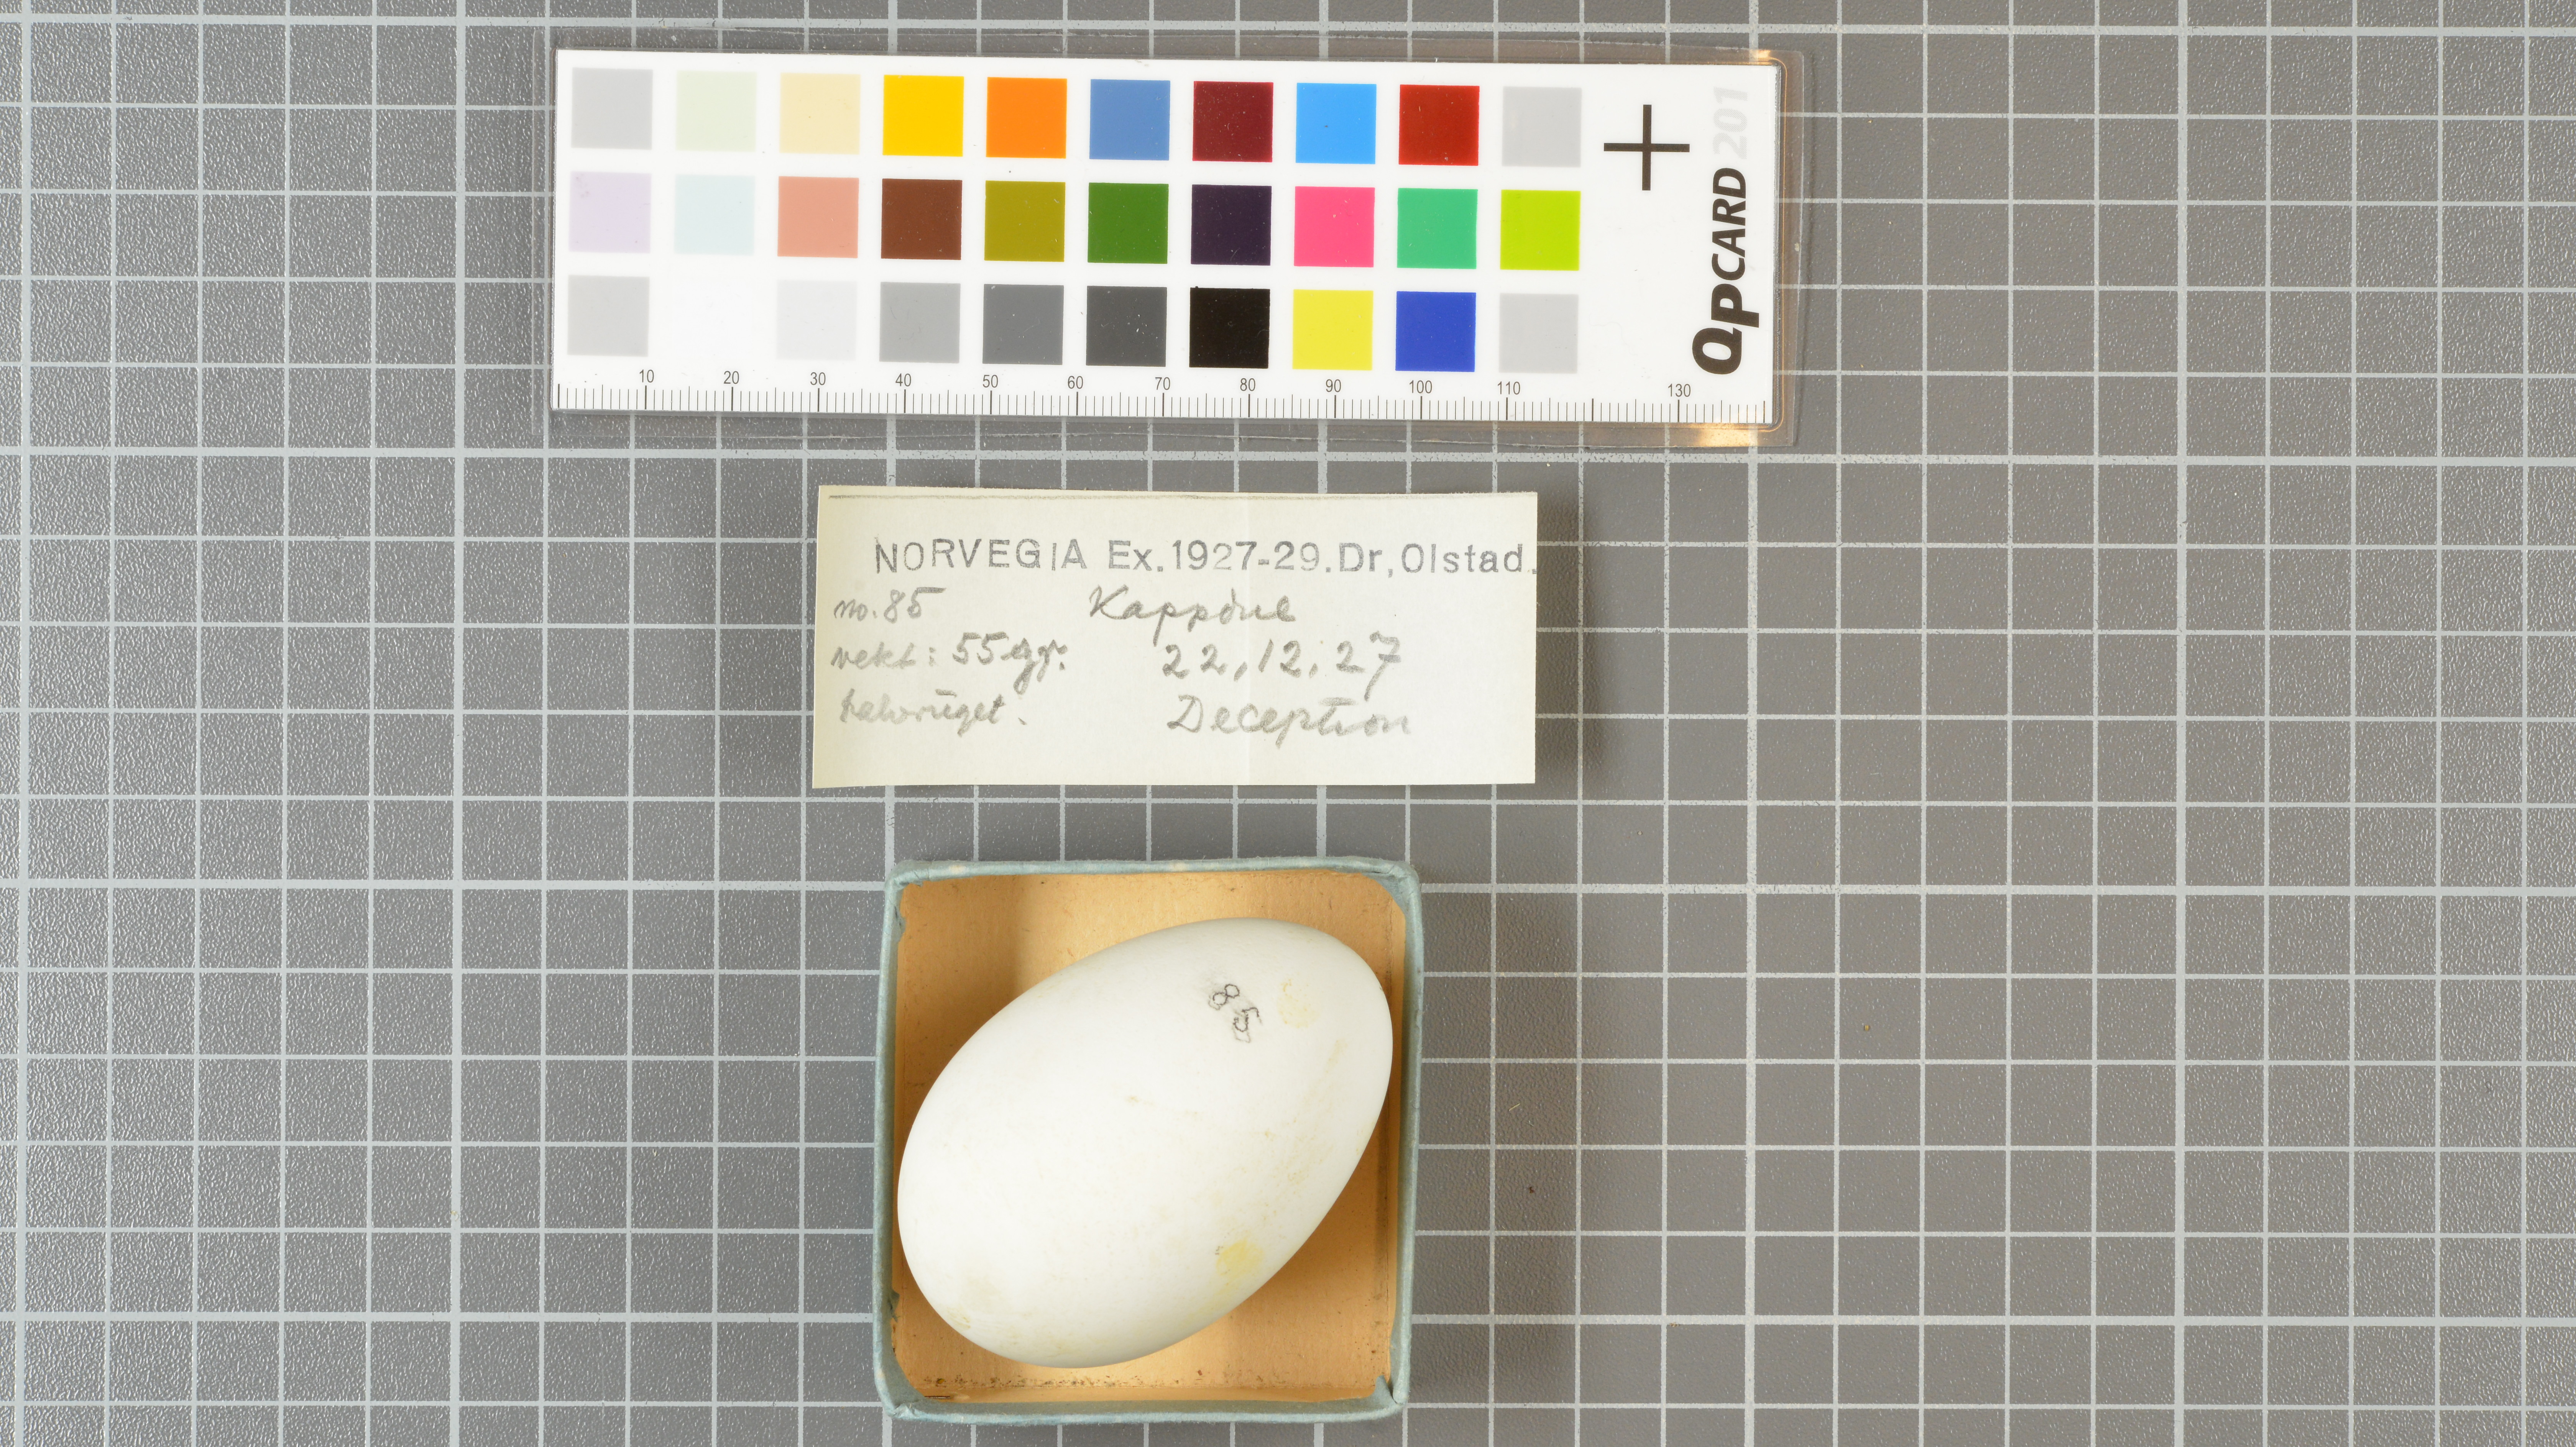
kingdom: Animalia
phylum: Chordata
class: Aves
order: Procellariiformes
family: Procellariidae
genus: Daption
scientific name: Daption capense
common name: Cape petrel
